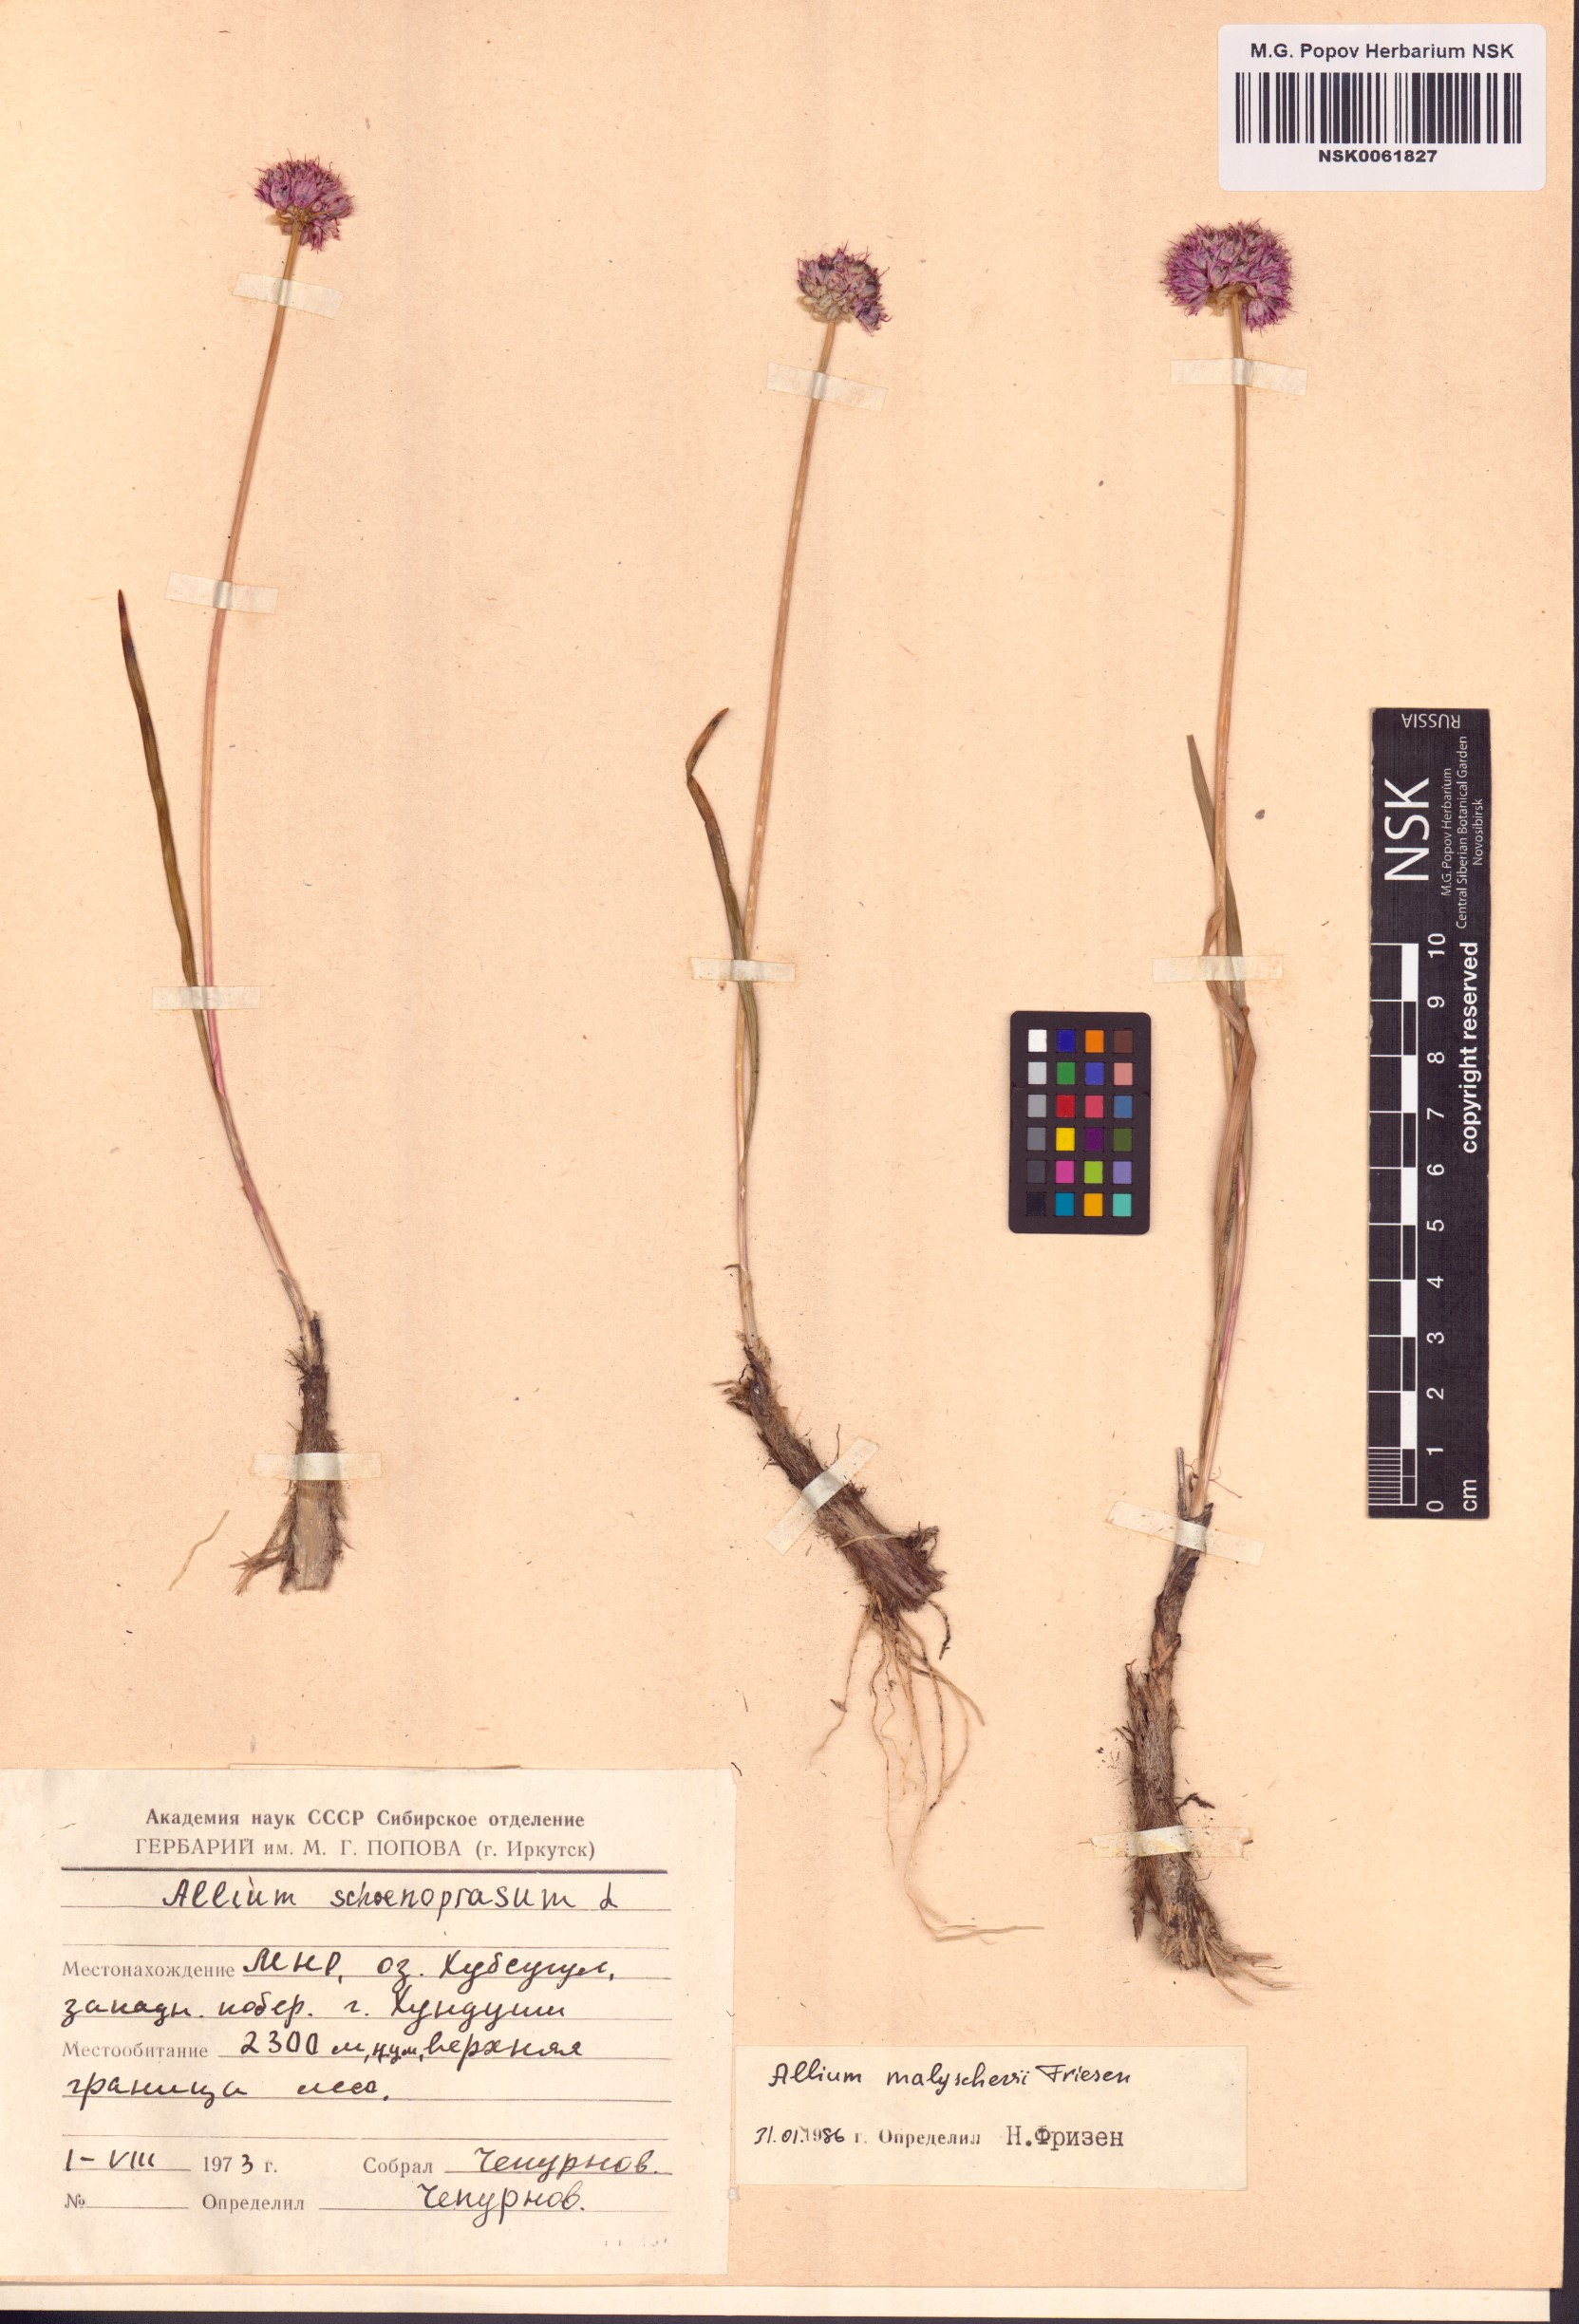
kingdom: Plantae
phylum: Tracheophyta
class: Liliopsida
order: Asparagales
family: Amaryllidaceae
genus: Allium
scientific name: Allium malyschevii
